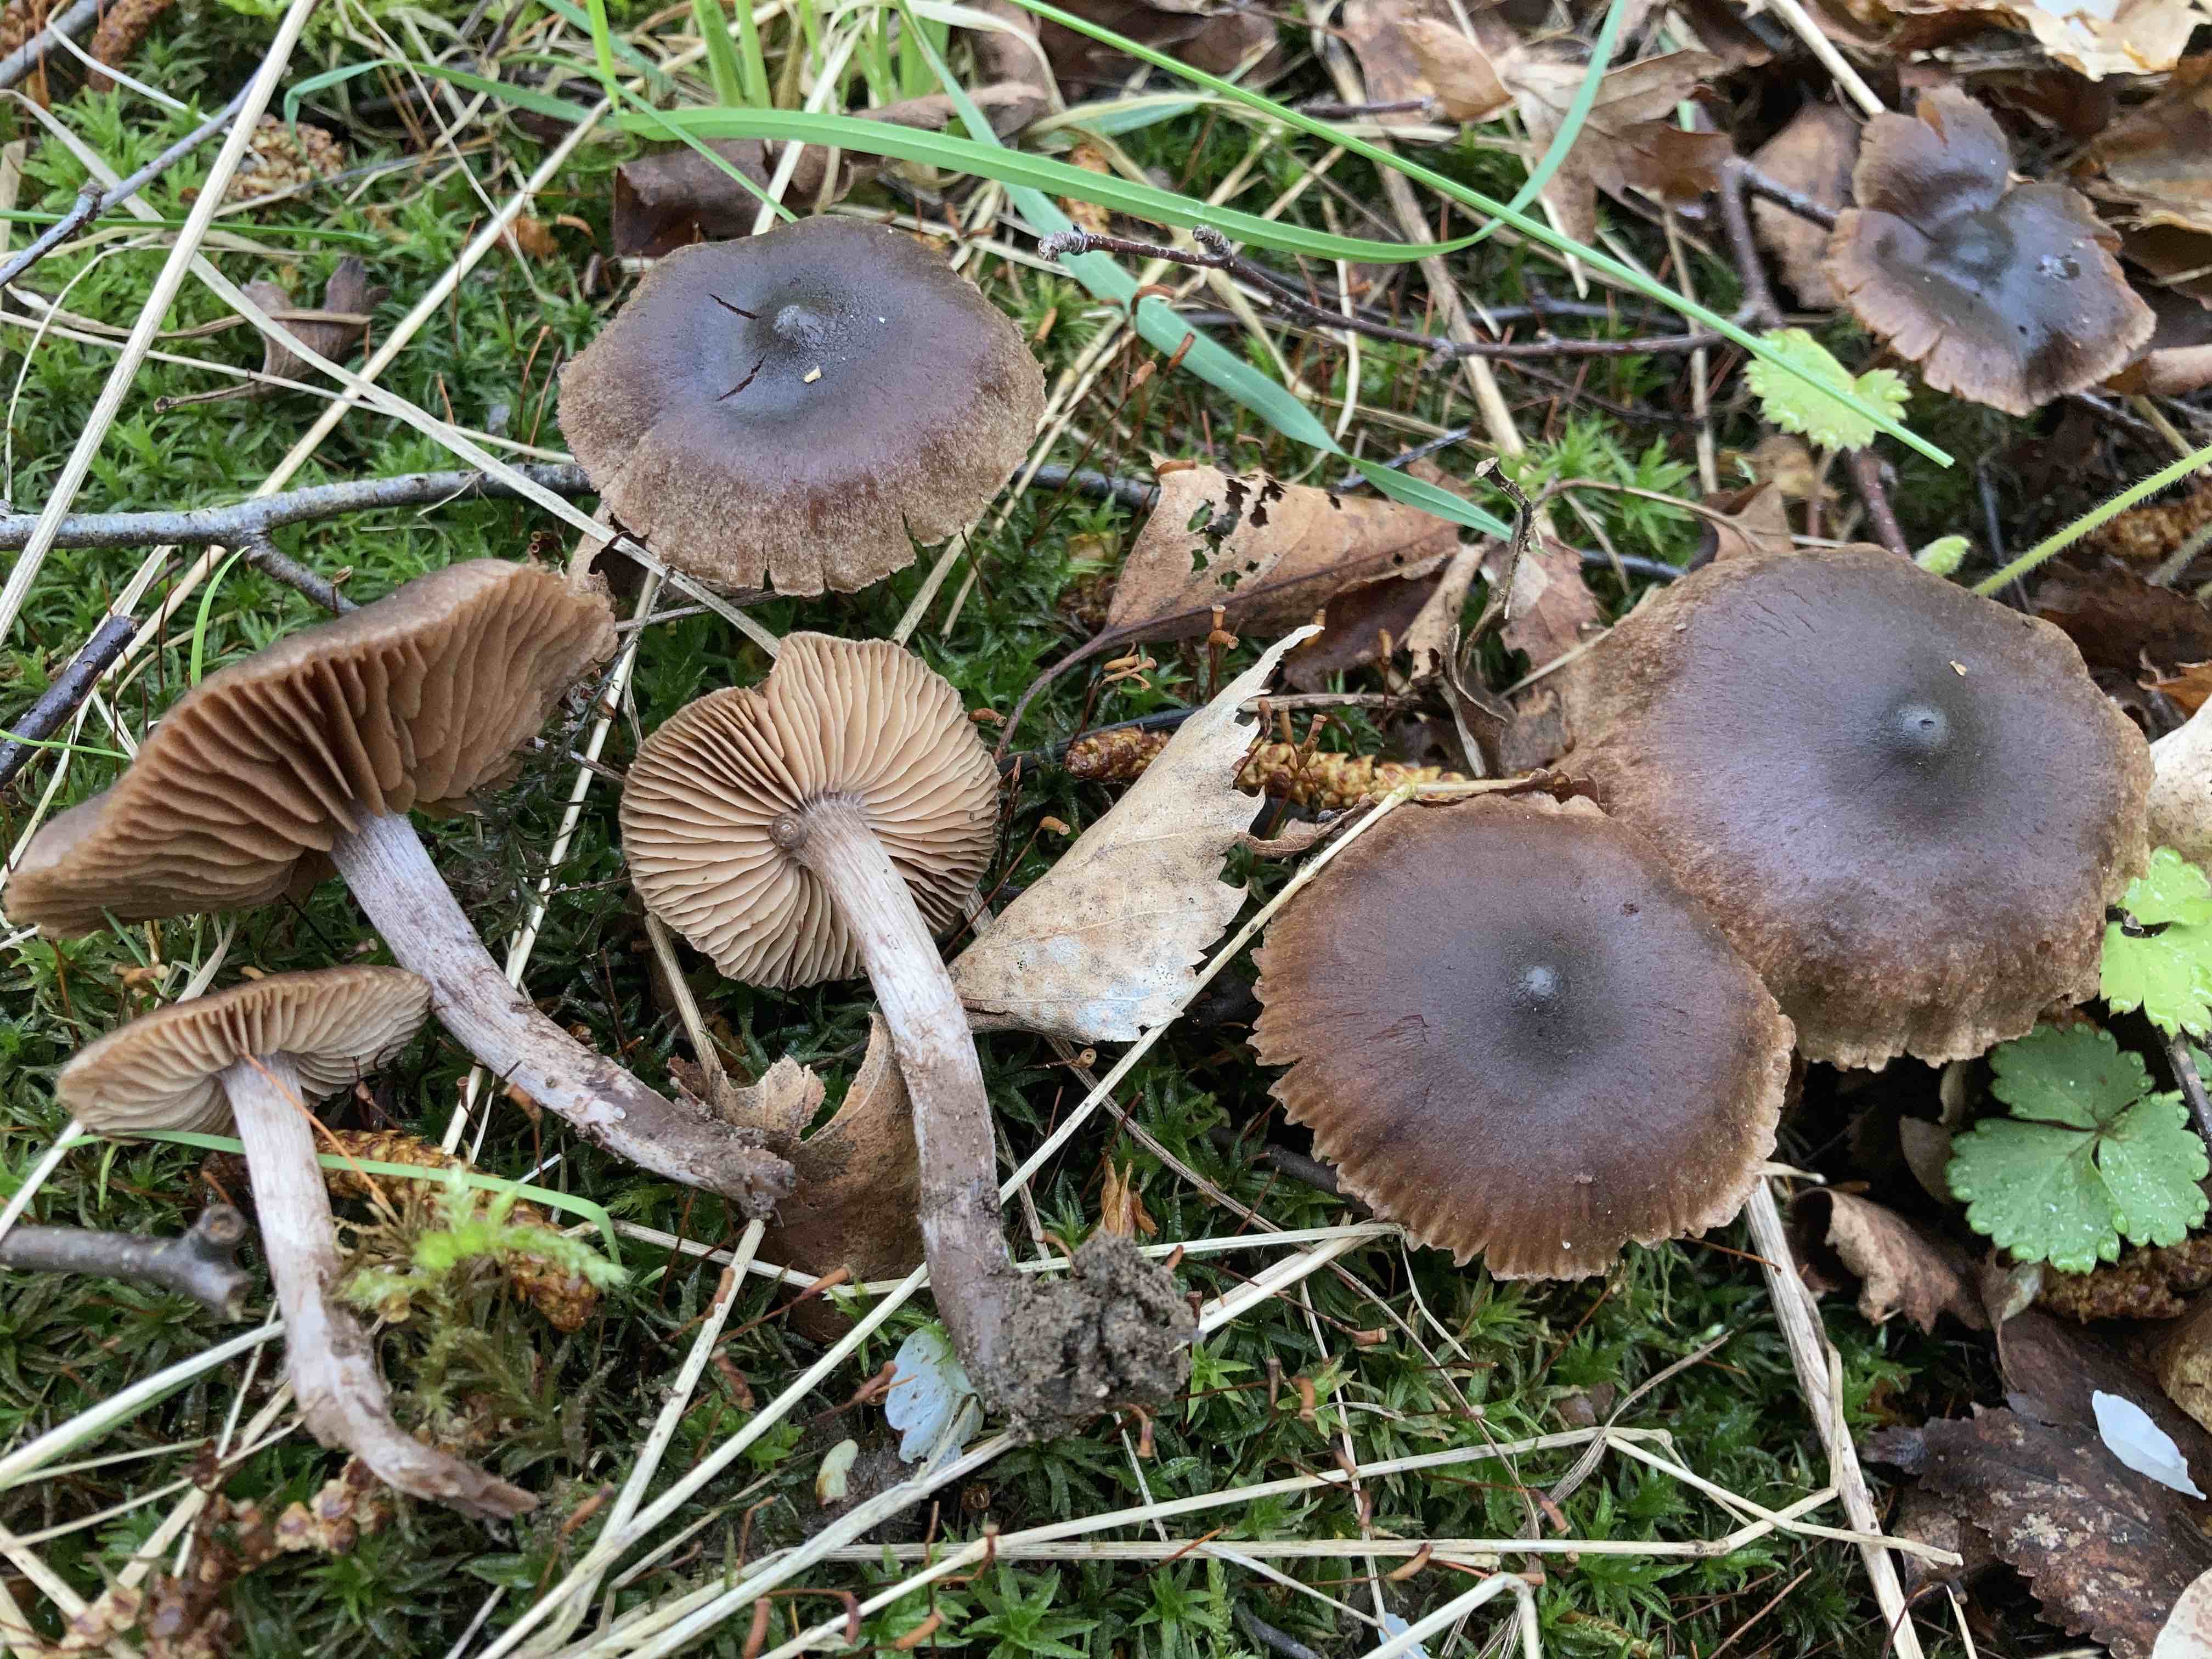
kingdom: Fungi
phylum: Basidiomycota
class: Agaricomycetes
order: Agaricales
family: Cortinariaceae
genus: Cortinarius
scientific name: Cortinarius suberythrinus
